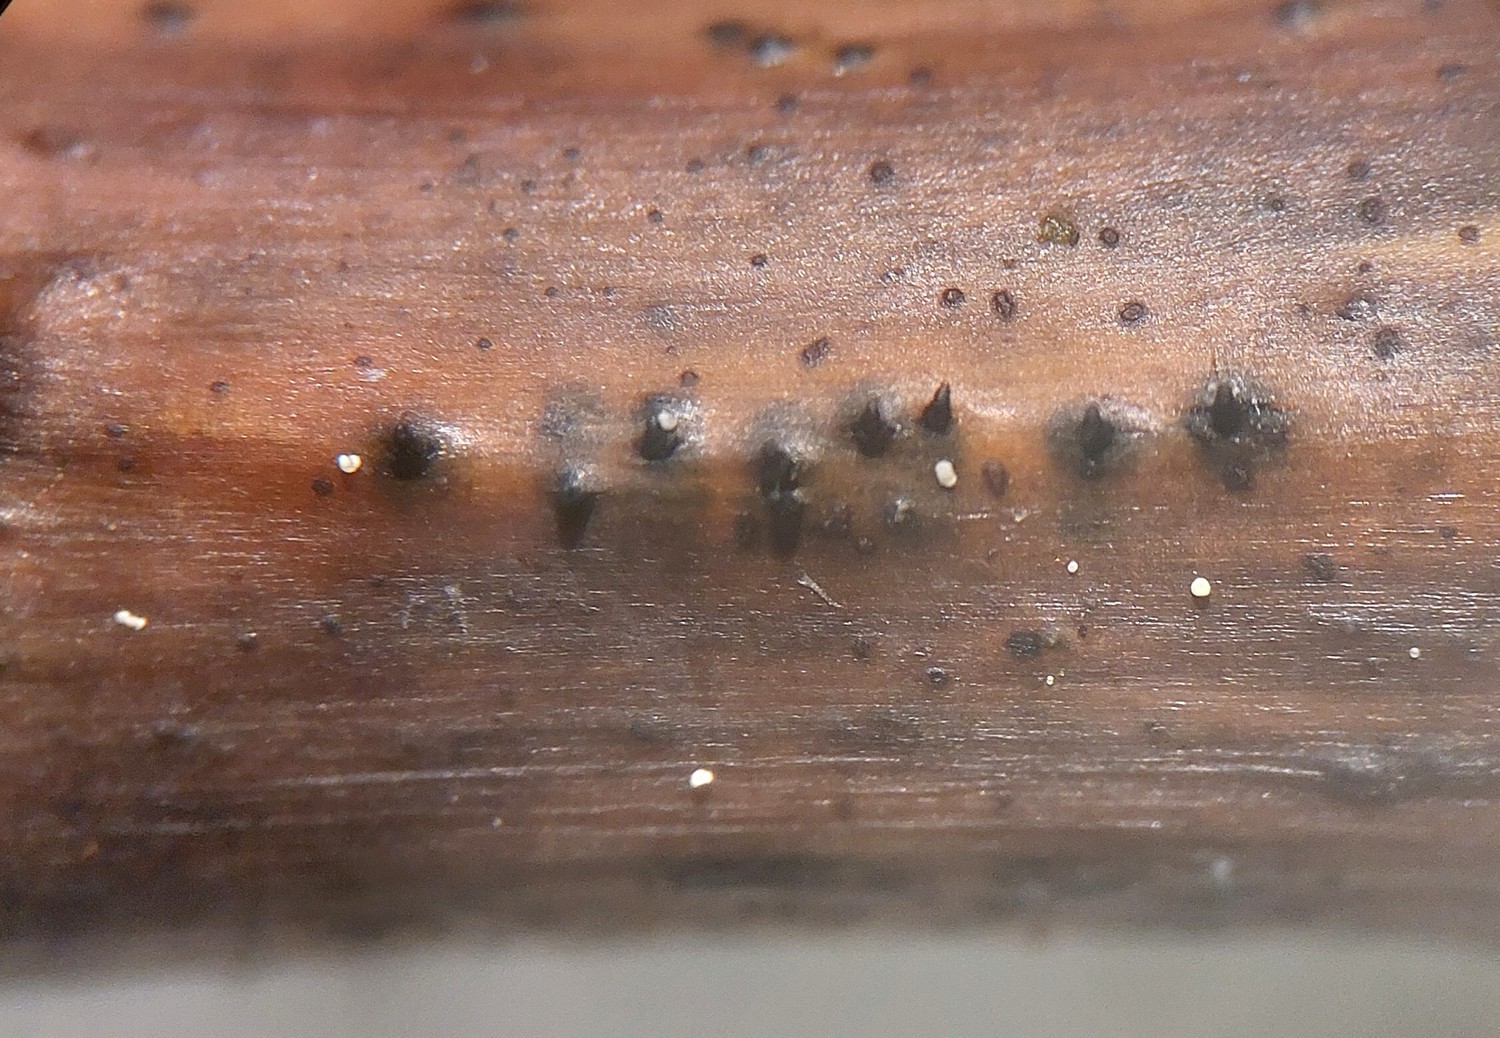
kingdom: Fungi
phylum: Ascomycota
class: Sordariomycetes
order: Diaporthales
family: Sydowiellaceae
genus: Sydowiella
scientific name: Sydowiella fenestrans
